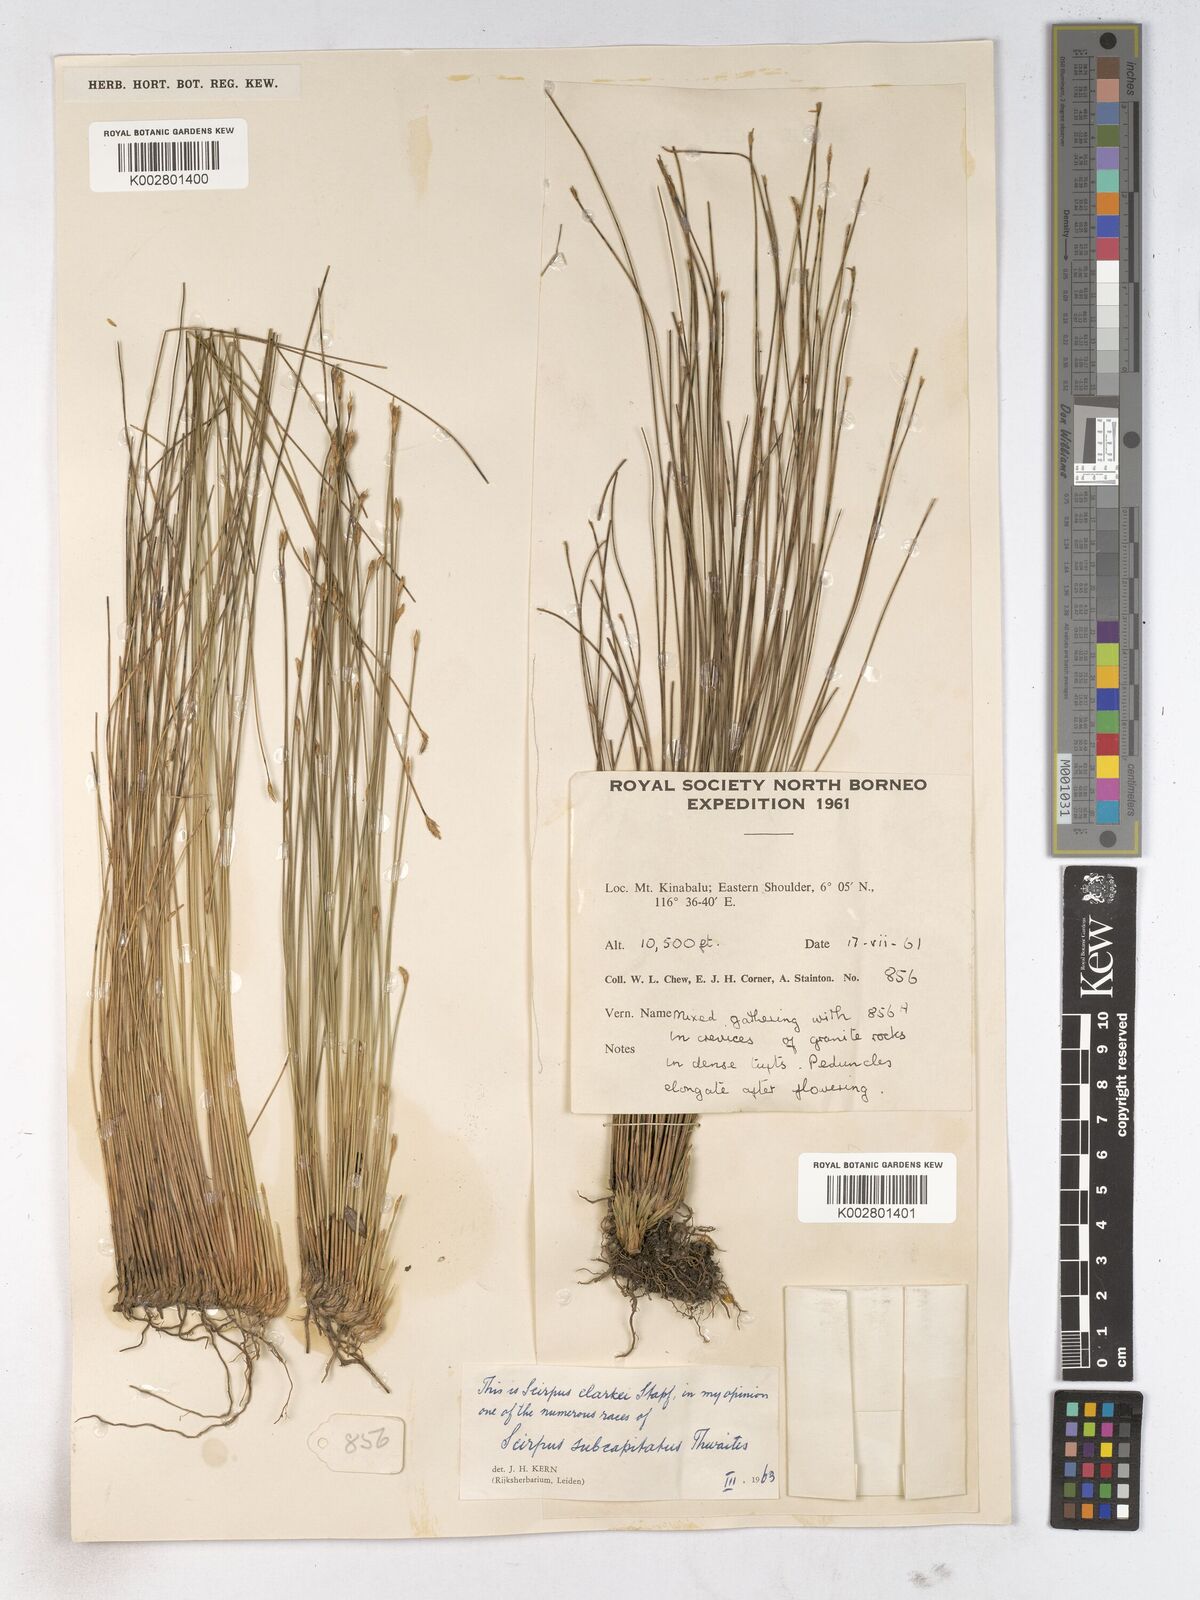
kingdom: Plantae
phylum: Tracheophyta
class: Liliopsida
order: Poales
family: Cyperaceae
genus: Trichophorum
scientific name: Trichophorum subcapitatum
